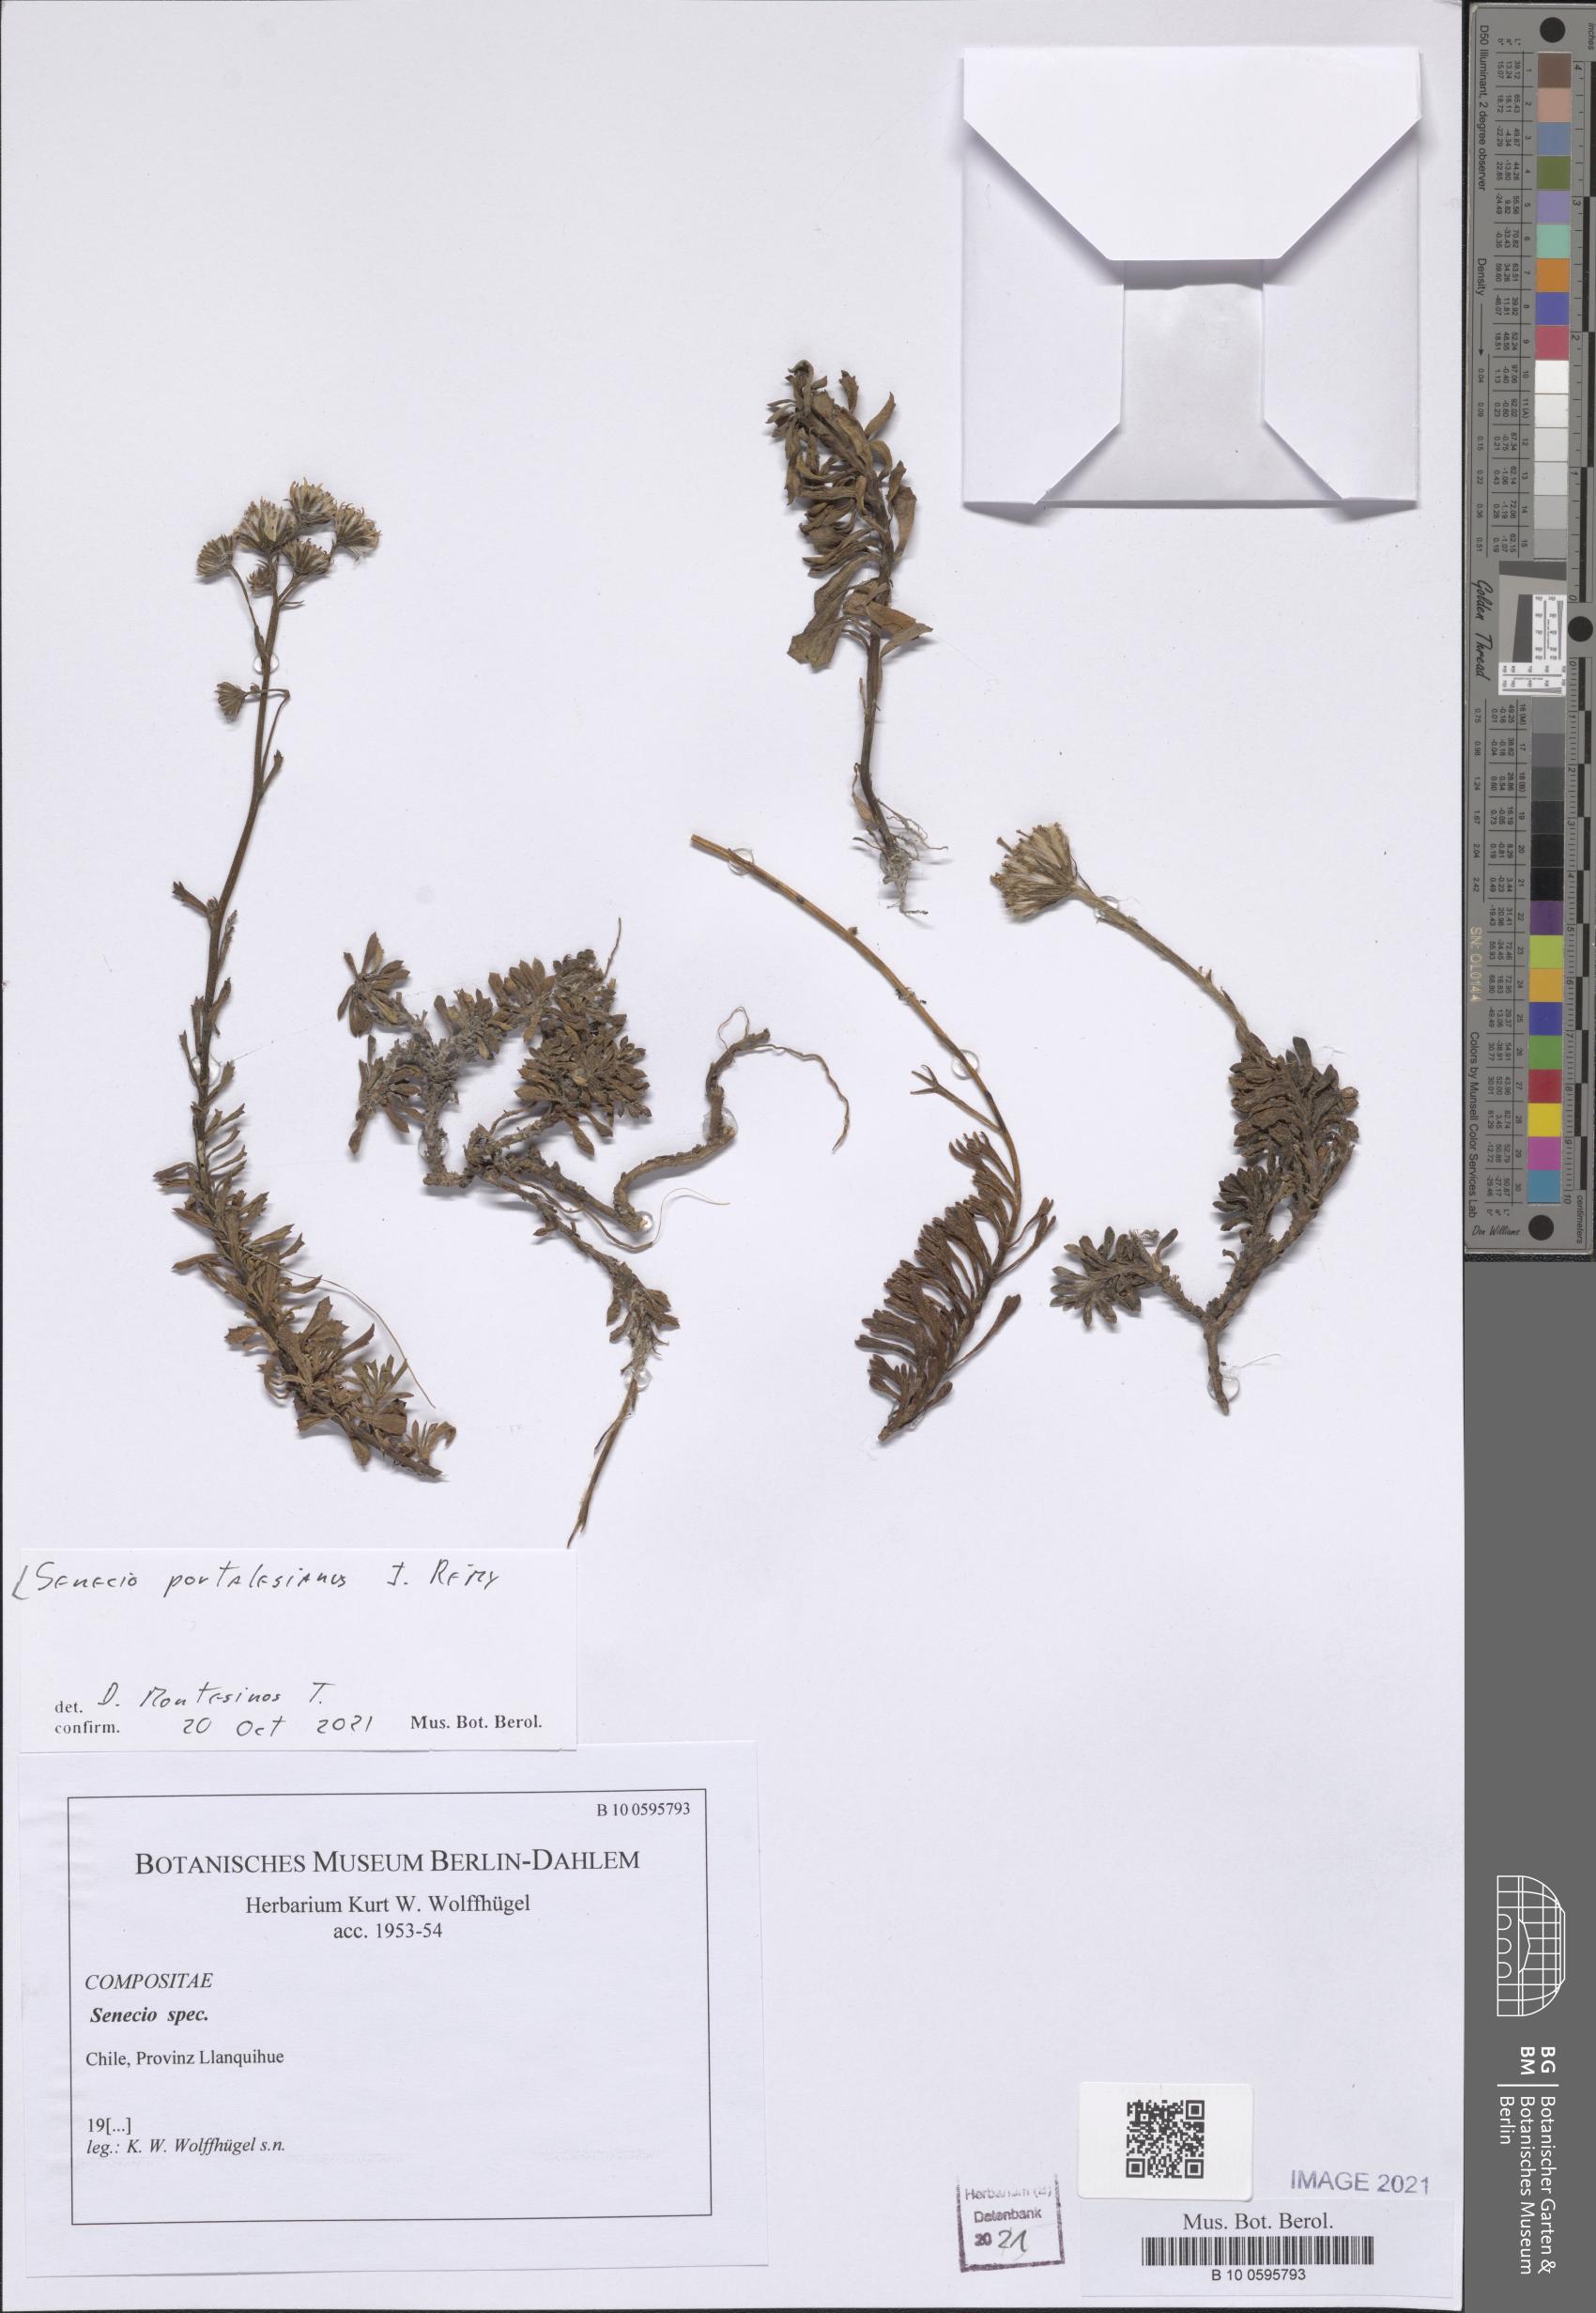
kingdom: Plantae
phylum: Tracheophyta
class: Magnoliopsida
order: Asterales
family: Asteraceae
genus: Senecio
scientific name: Senecio portalesianus
